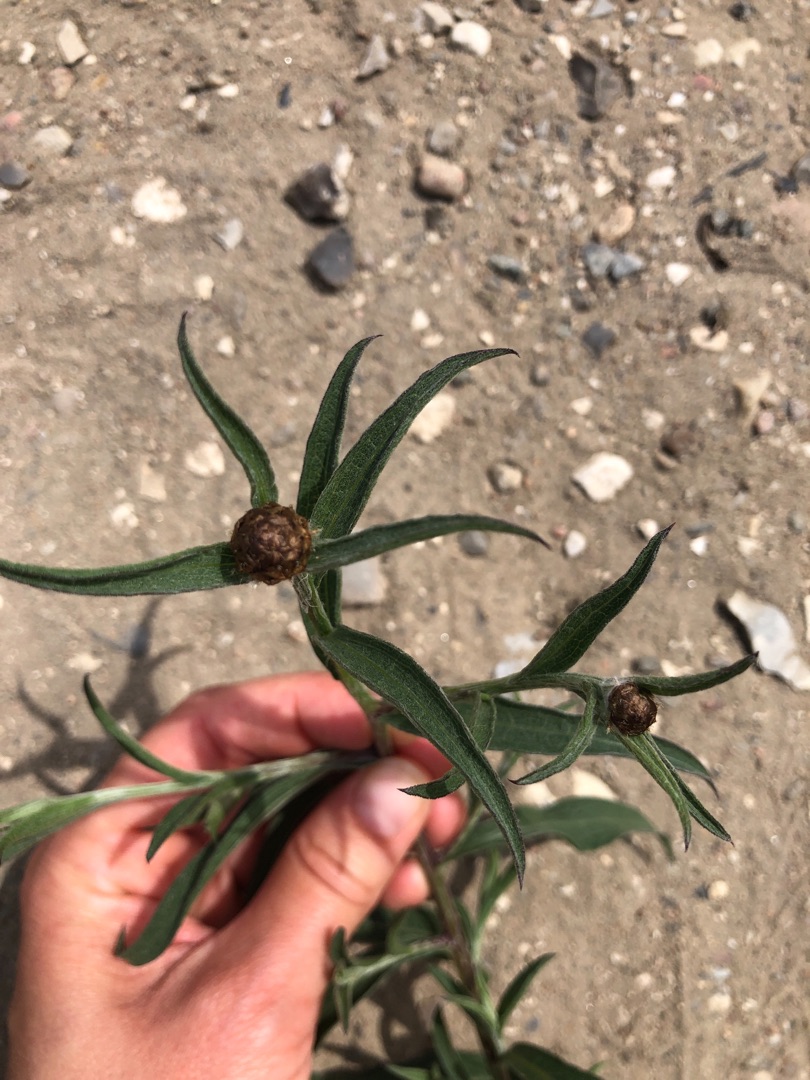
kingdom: Plantae
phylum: Tracheophyta
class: Magnoliopsida
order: Asterales
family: Asteraceae
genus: Centaurea
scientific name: Centaurea jacea
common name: Almindelig knopurt
